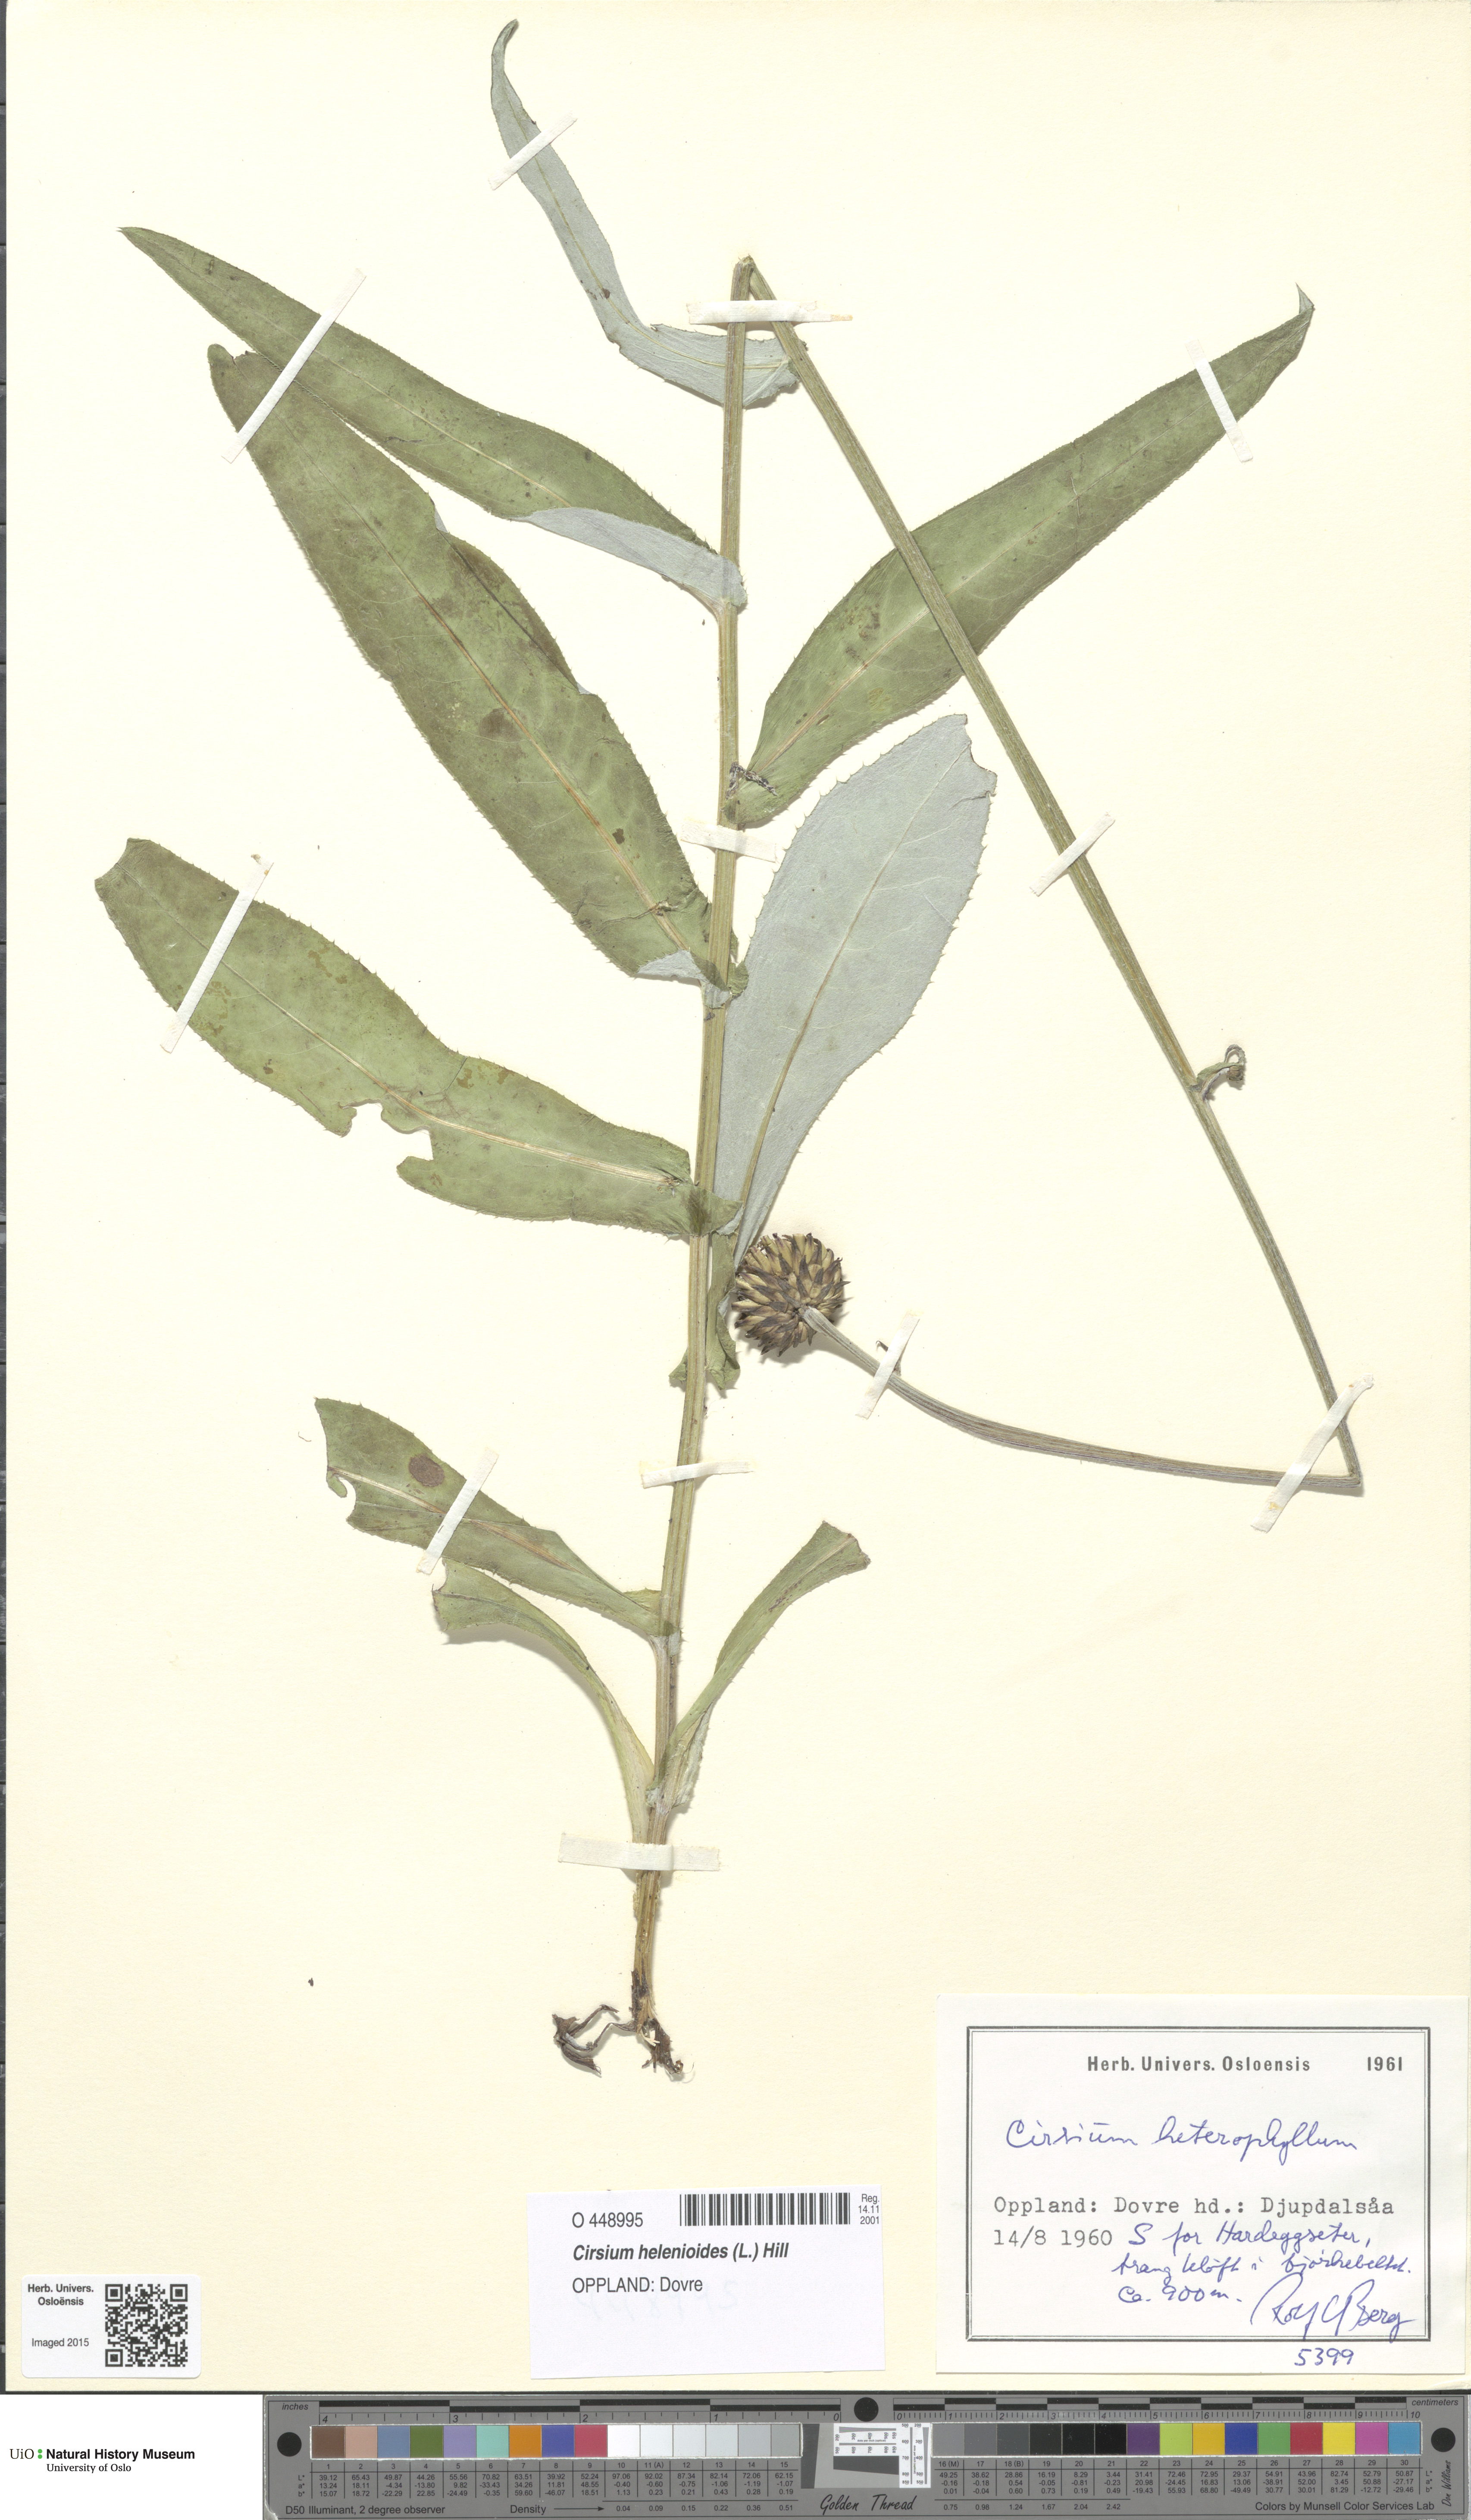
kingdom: Plantae
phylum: Tracheophyta
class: Magnoliopsida
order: Asterales
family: Asteraceae
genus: Cirsium
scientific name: Cirsium heterophyllum
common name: Melancholy thistle
